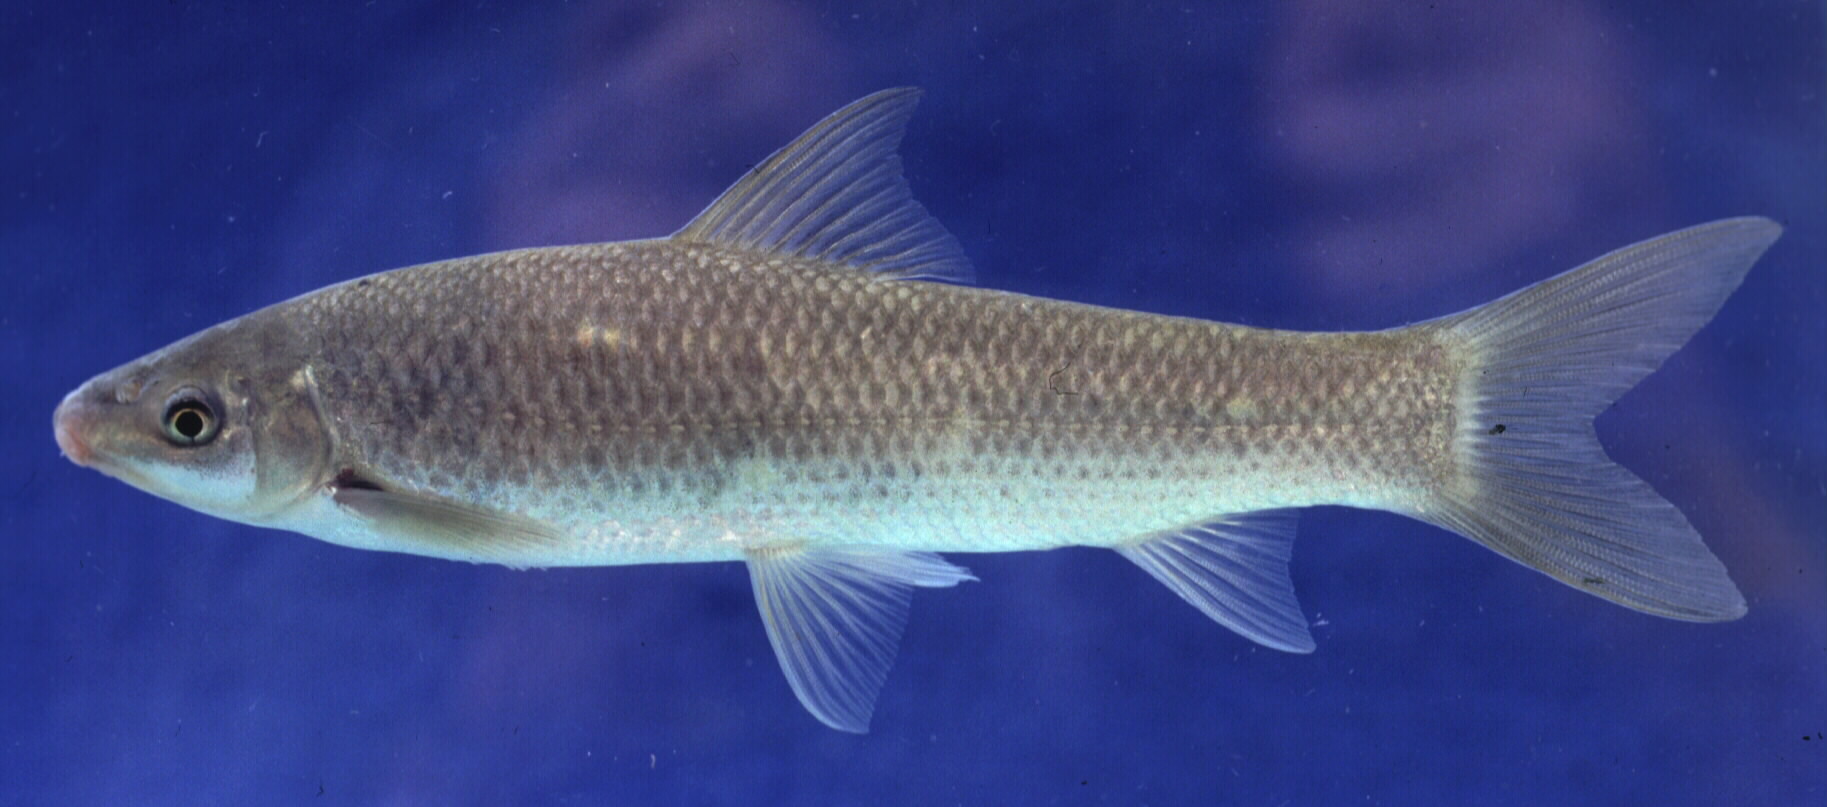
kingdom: Animalia
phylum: Chordata
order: Cypriniformes
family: Cyprinidae
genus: Labeo
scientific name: Labeo rubromaculatus
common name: Tugela labeo
